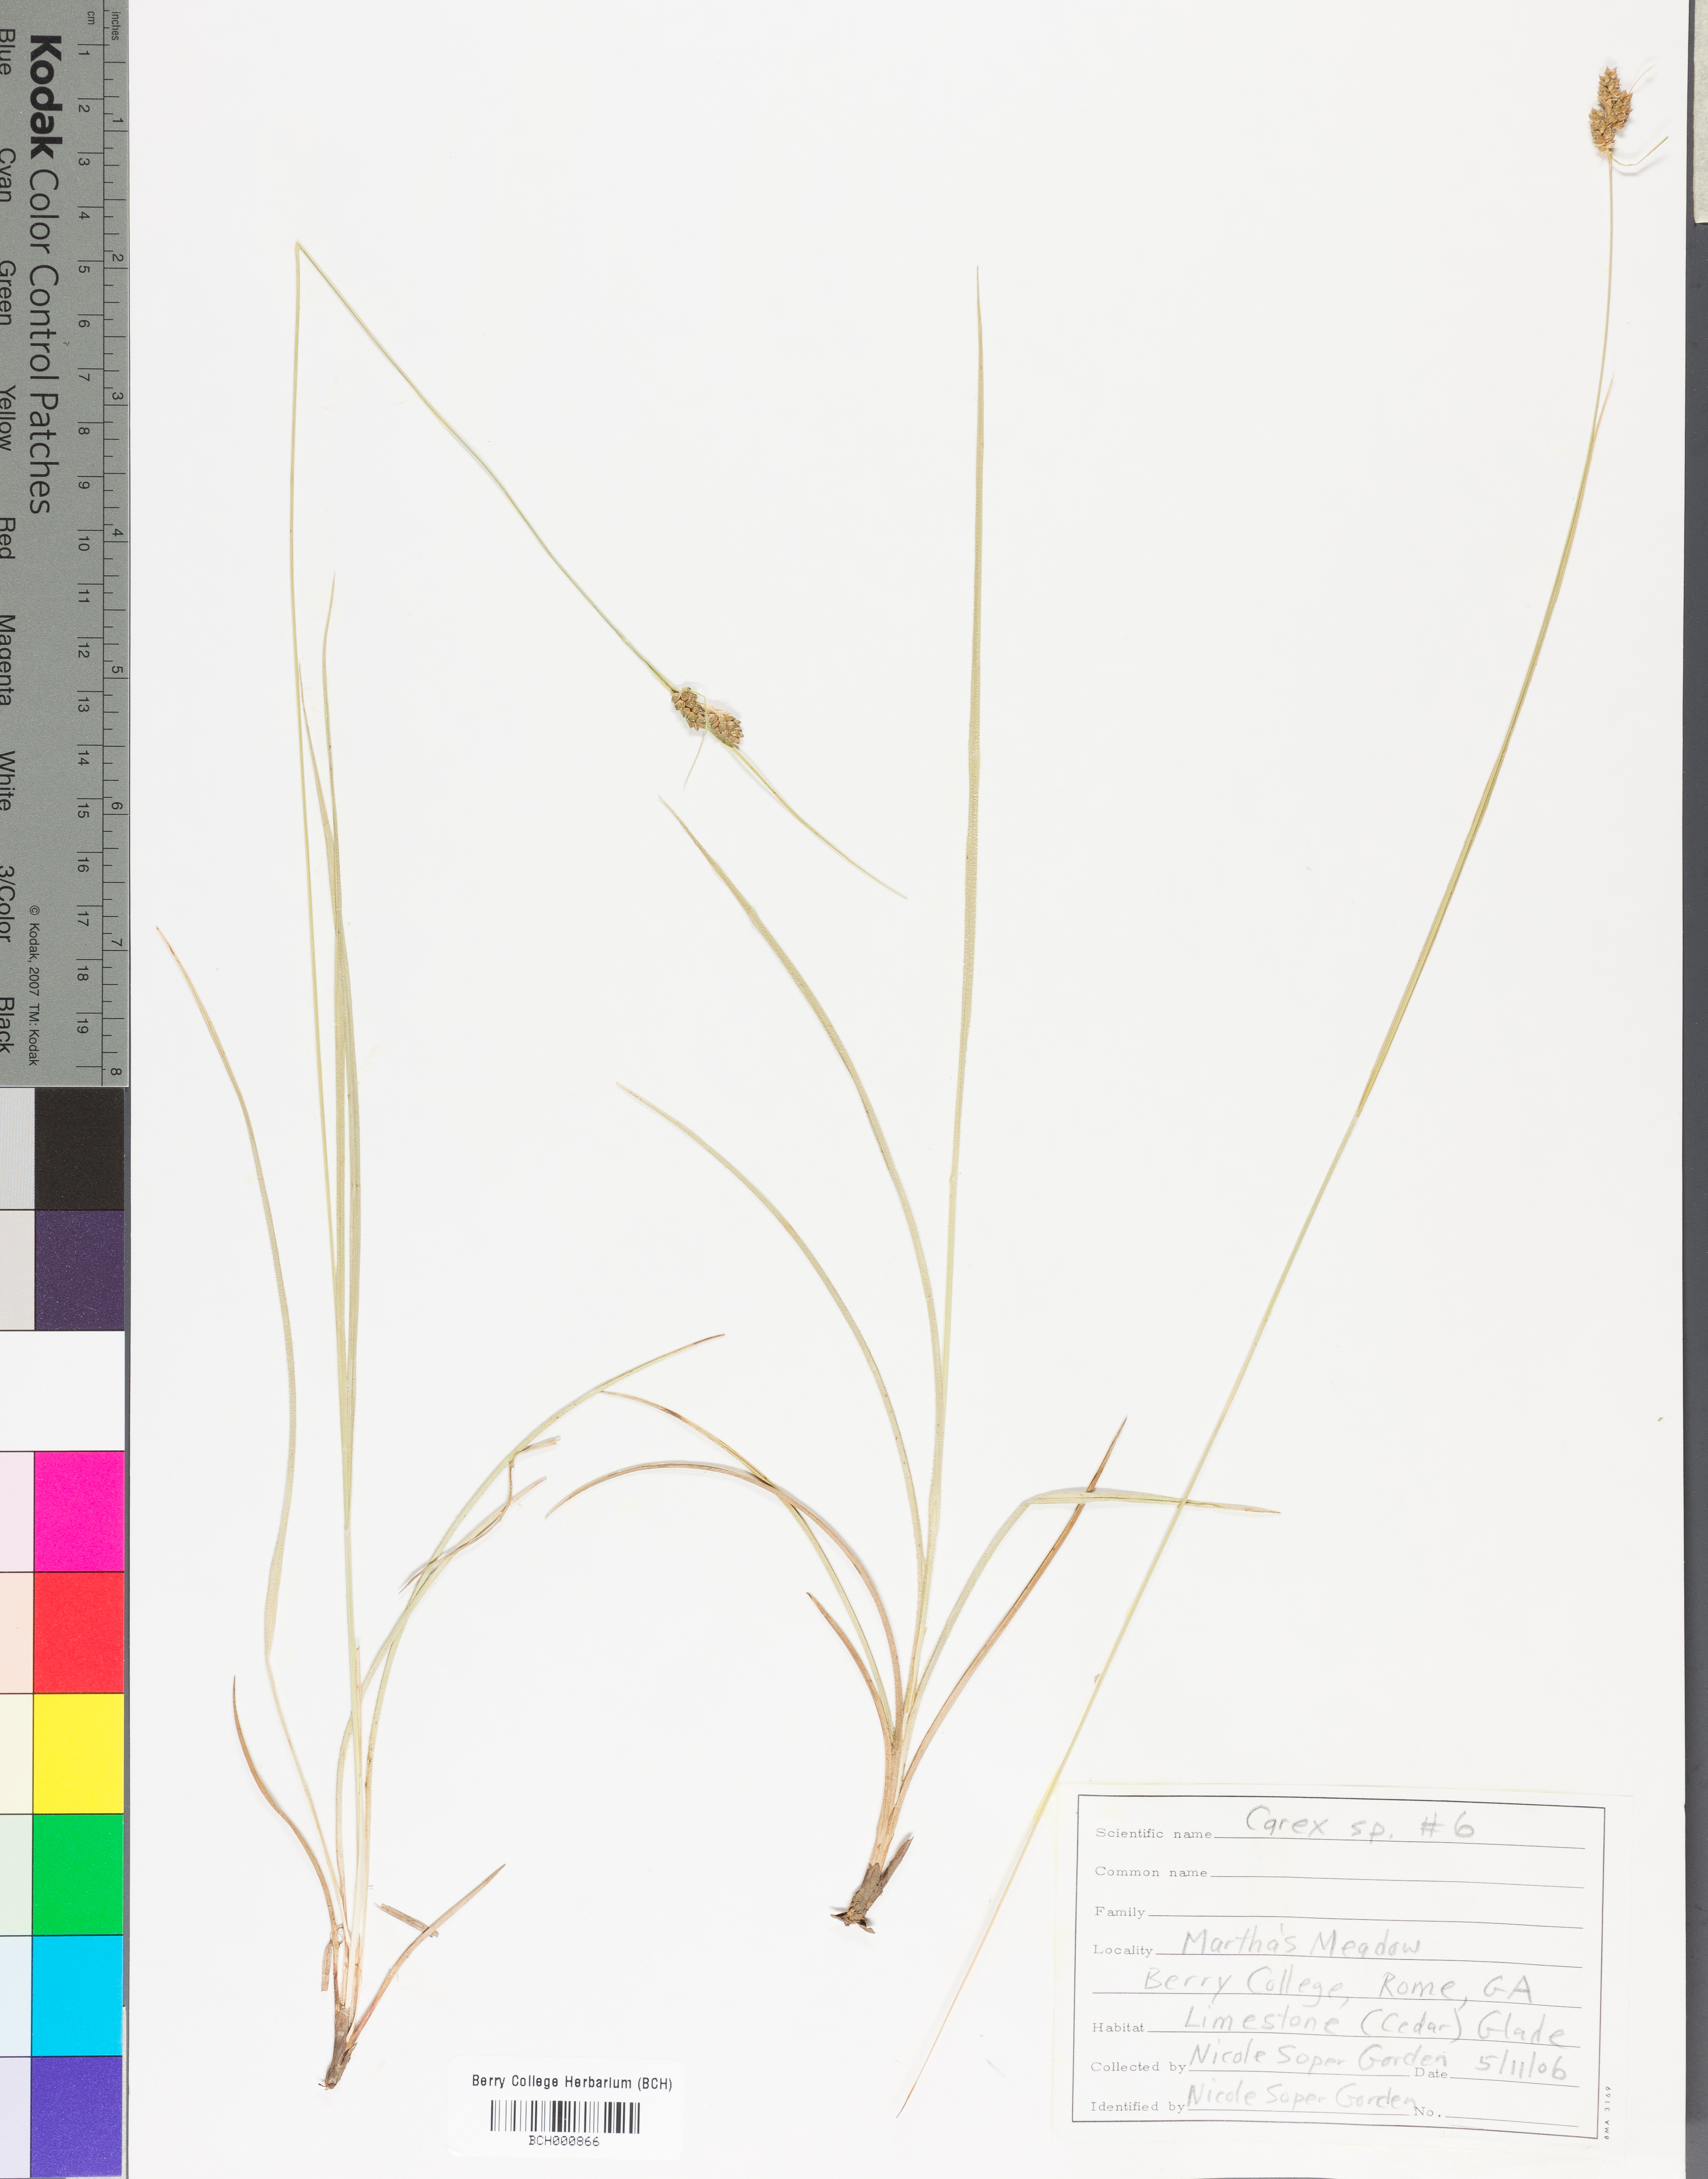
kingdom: Plantae
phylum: Tracheophyta
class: Liliopsida
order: Poales
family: Cyperaceae
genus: Carex
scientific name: Carex
